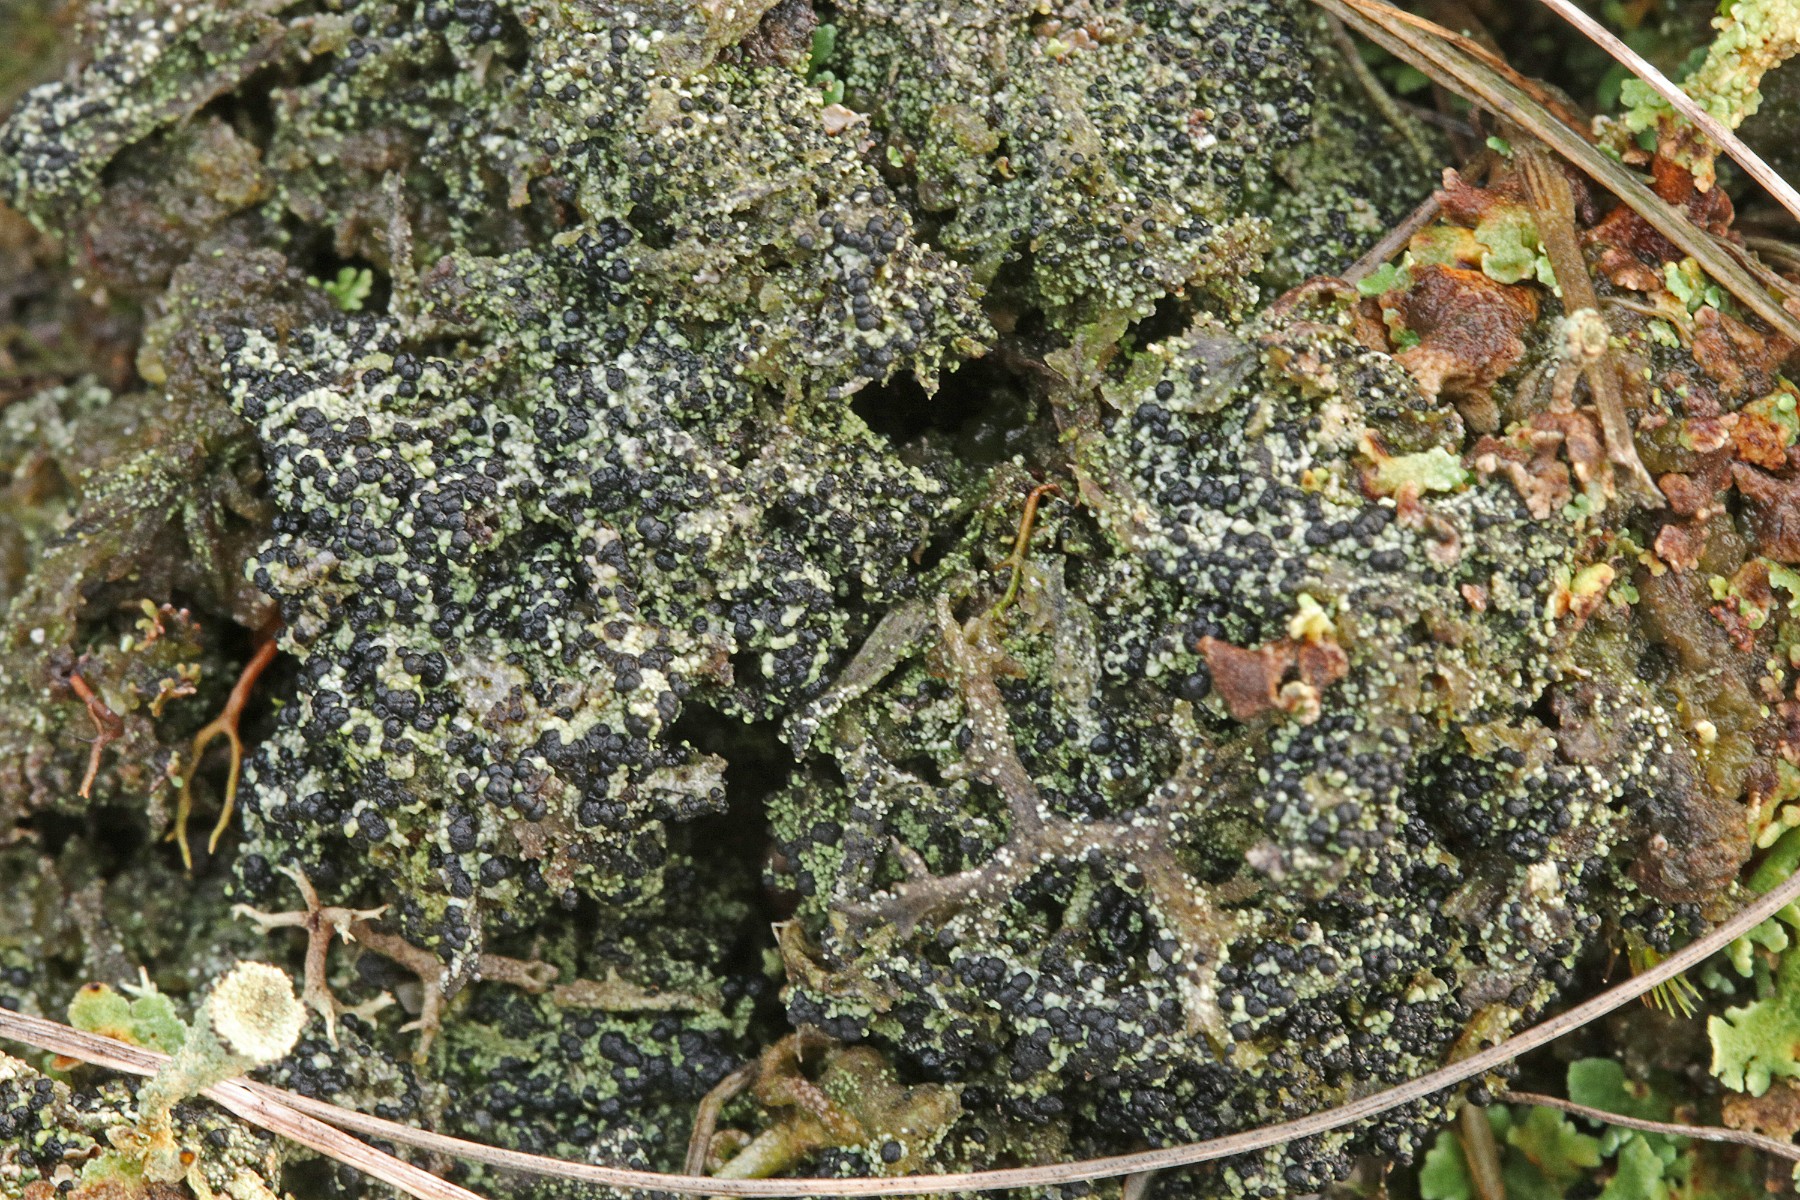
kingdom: Fungi
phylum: Ascomycota
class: Lecanoromycetes
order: Lecanorales
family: Byssolomataceae
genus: Micarea
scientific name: Micarea lignaria
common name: tørve-knaplav
